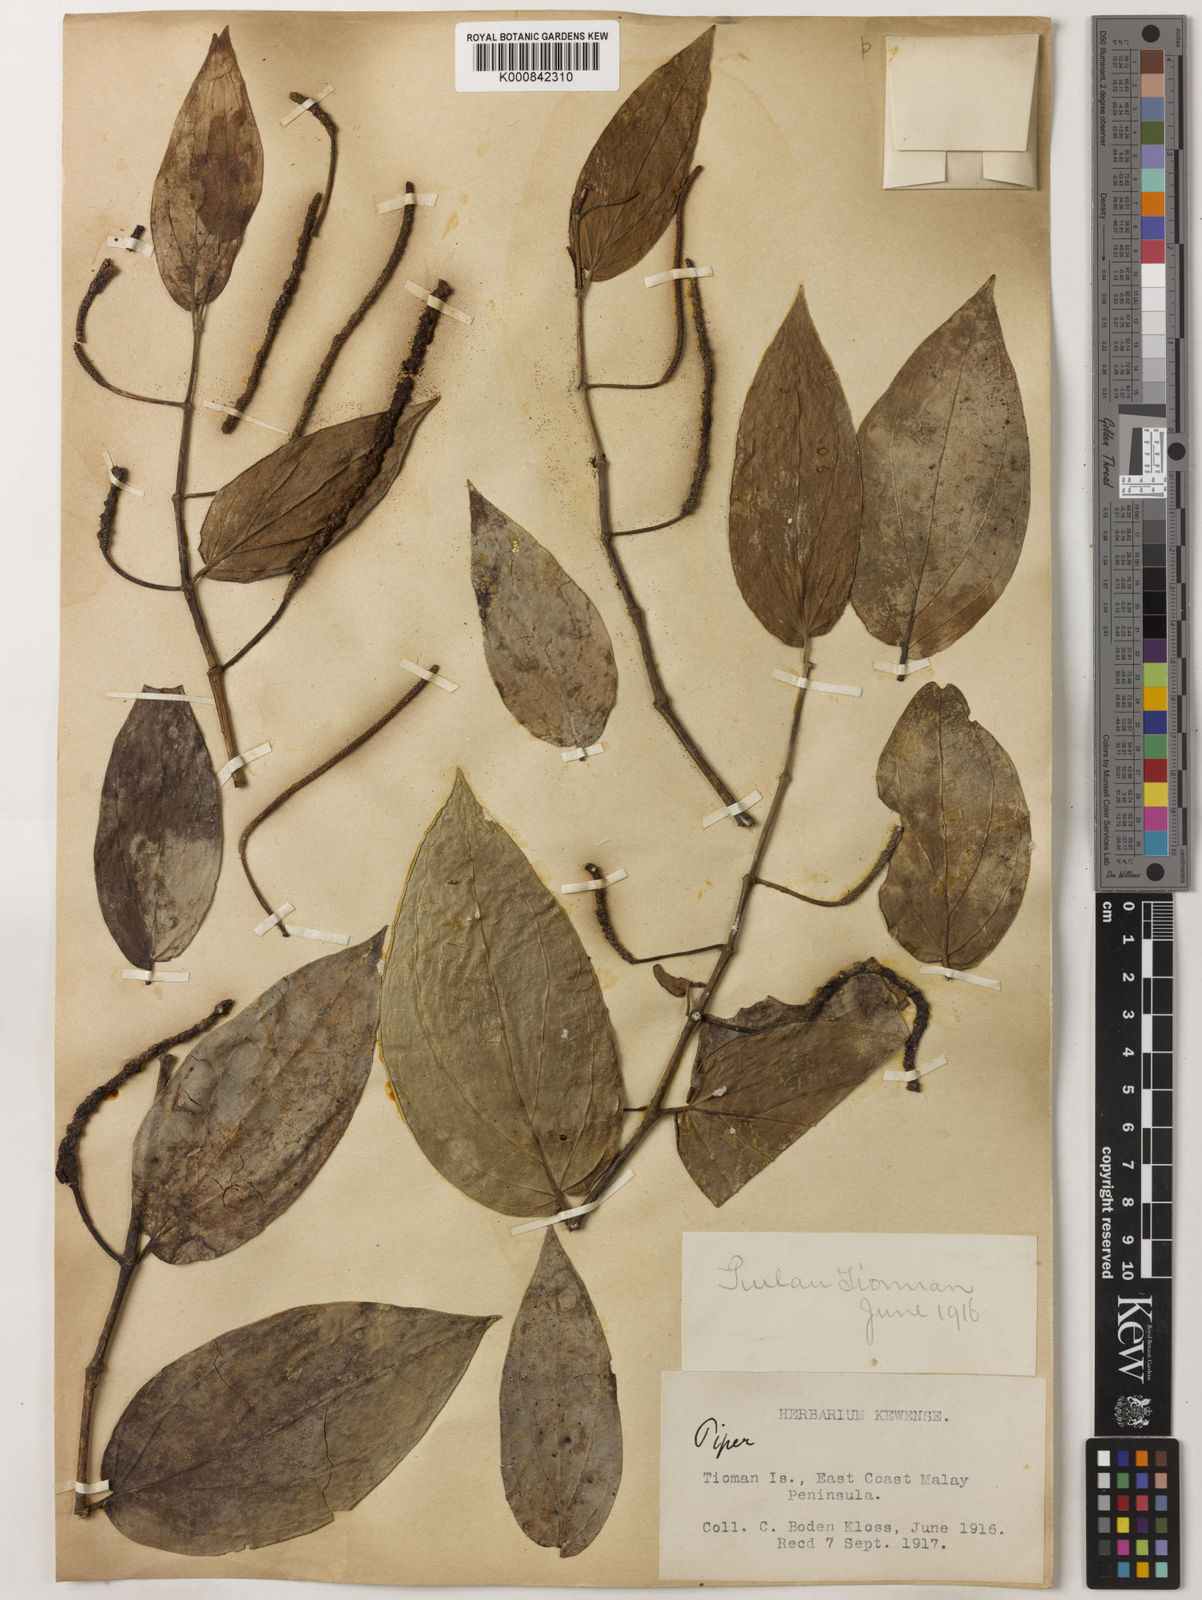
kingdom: Plantae
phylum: Tracheophyta
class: Magnoliopsida
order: Piperales
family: Piperaceae
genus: Piper
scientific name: Piper frustratum
